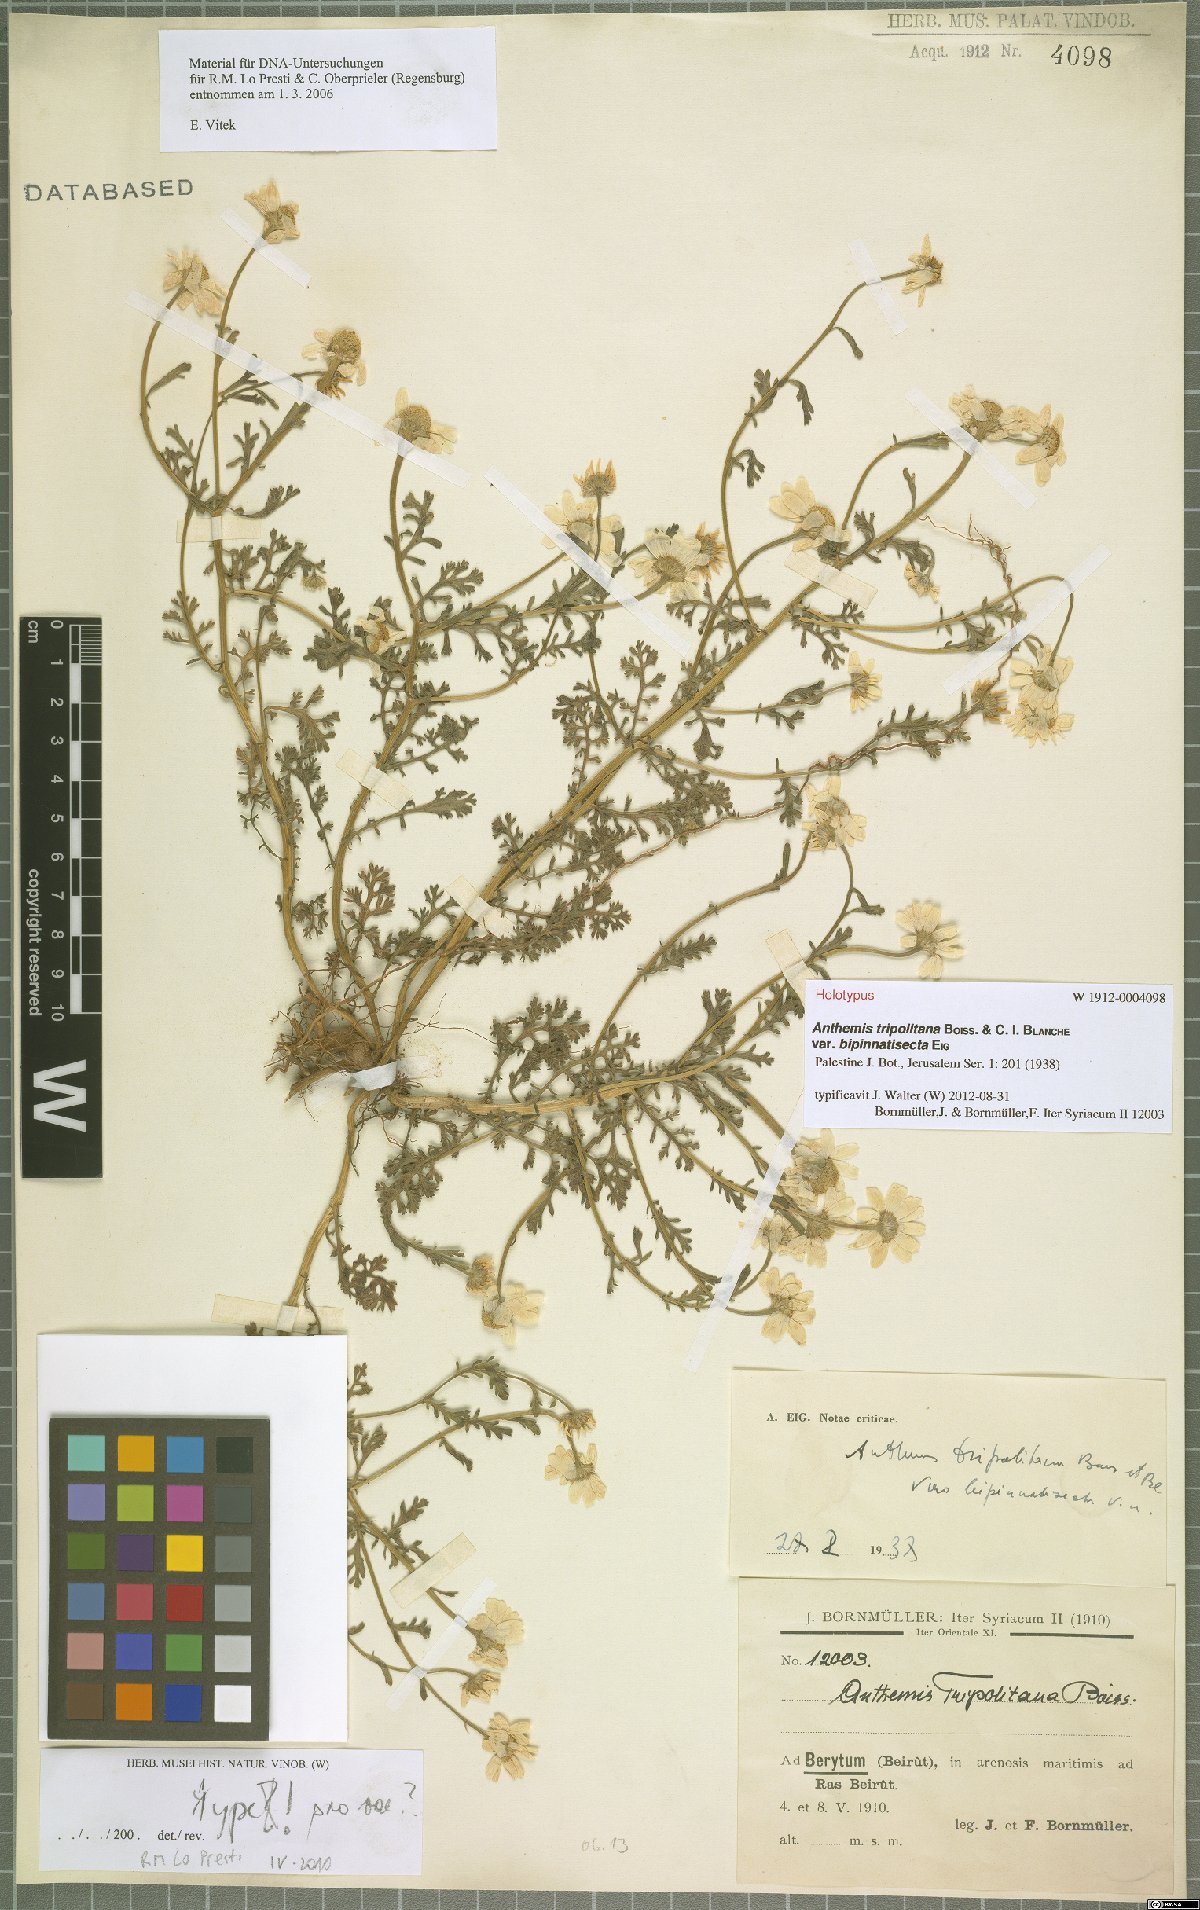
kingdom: Plantae
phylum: Tracheophyta
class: Magnoliopsida
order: Asterales
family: Asteraceae
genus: Anthemis
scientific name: Anthemis tripolitana
